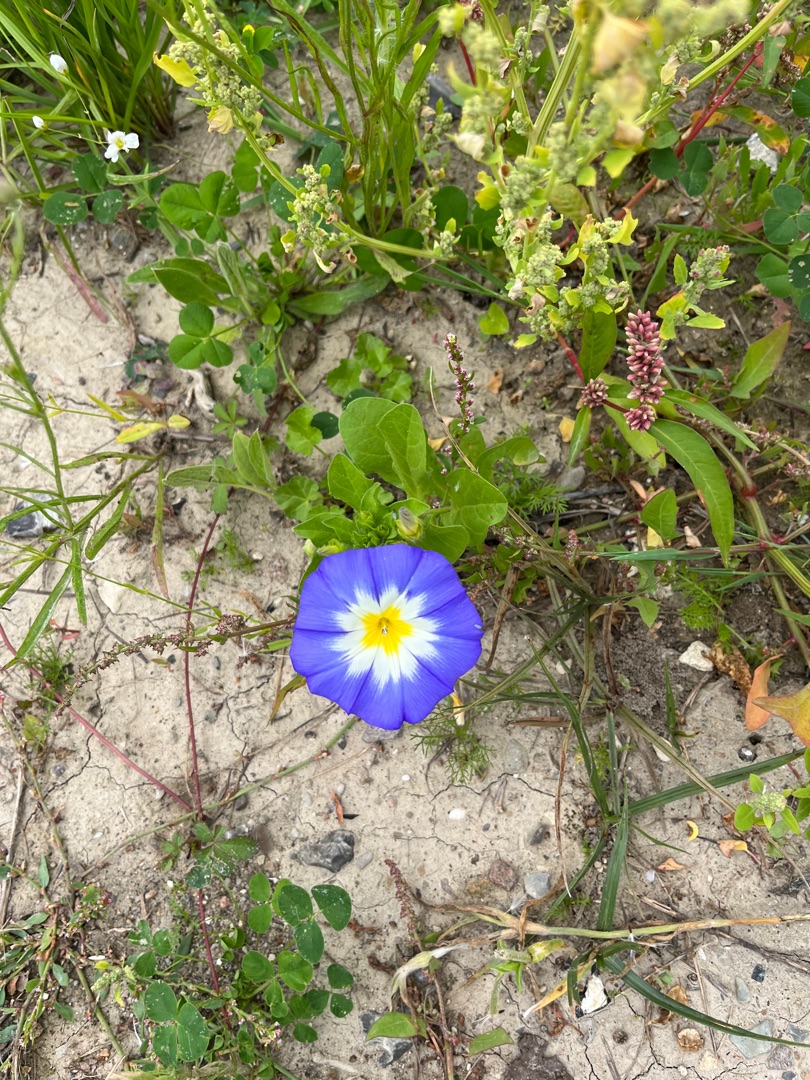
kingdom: Plantae
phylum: Tracheophyta
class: Magnoliopsida
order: Solanales
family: Convolvulaceae
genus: Convolvulus
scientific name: Convolvulus tricolor
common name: Jomfruskørt
